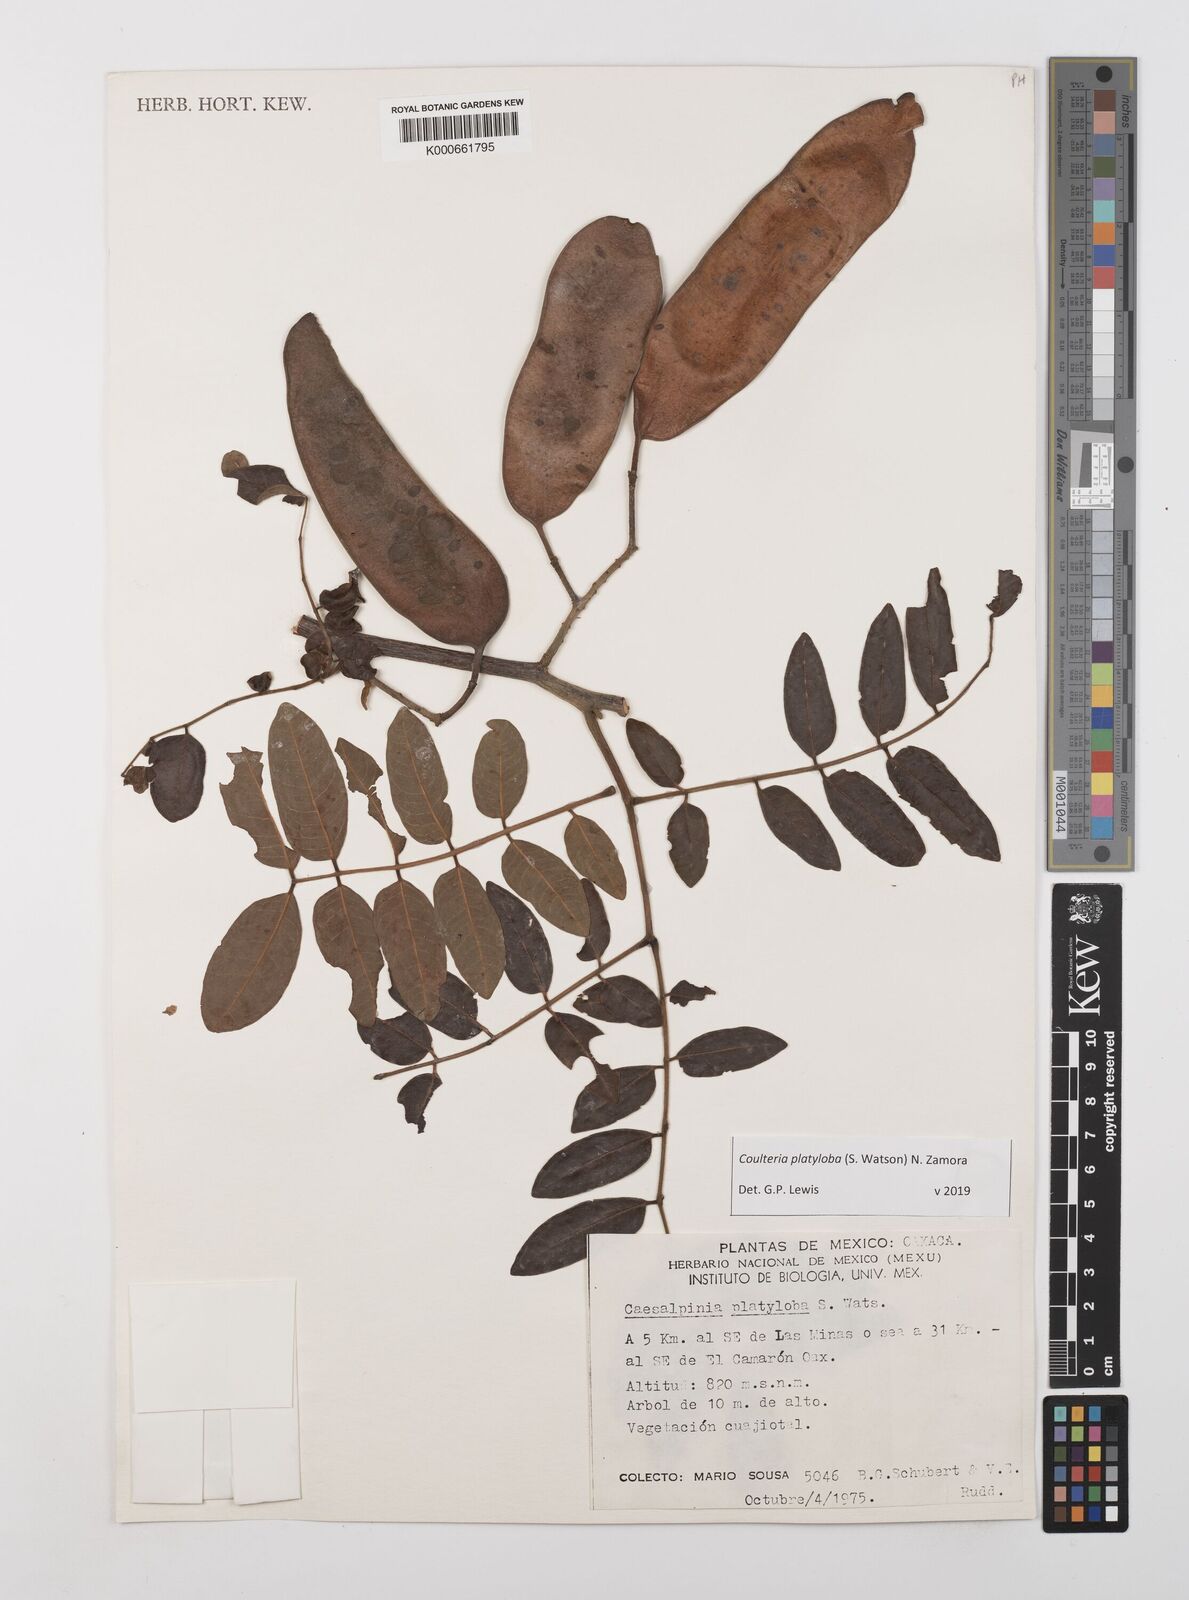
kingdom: Plantae
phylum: Tracheophyta
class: Magnoliopsida
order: Fabales
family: Fabaceae
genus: Coulteria
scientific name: Coulteria platyloba
